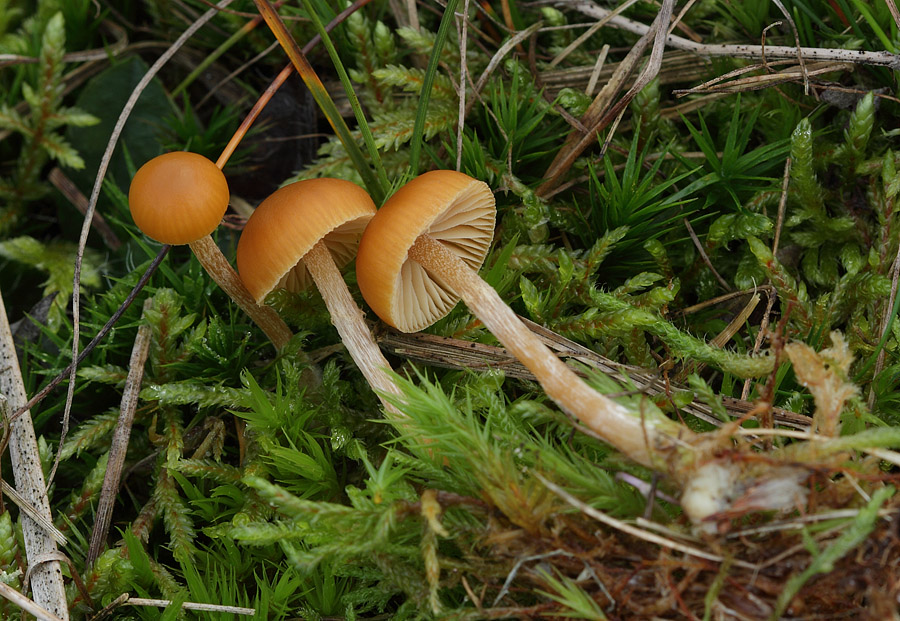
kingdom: Fungi
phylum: Basidiomycota
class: Agaricomycetes
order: Agaricales
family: Hymenogastraceae
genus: Galerina
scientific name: Galerina pumila
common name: honninggul hjelmhat
